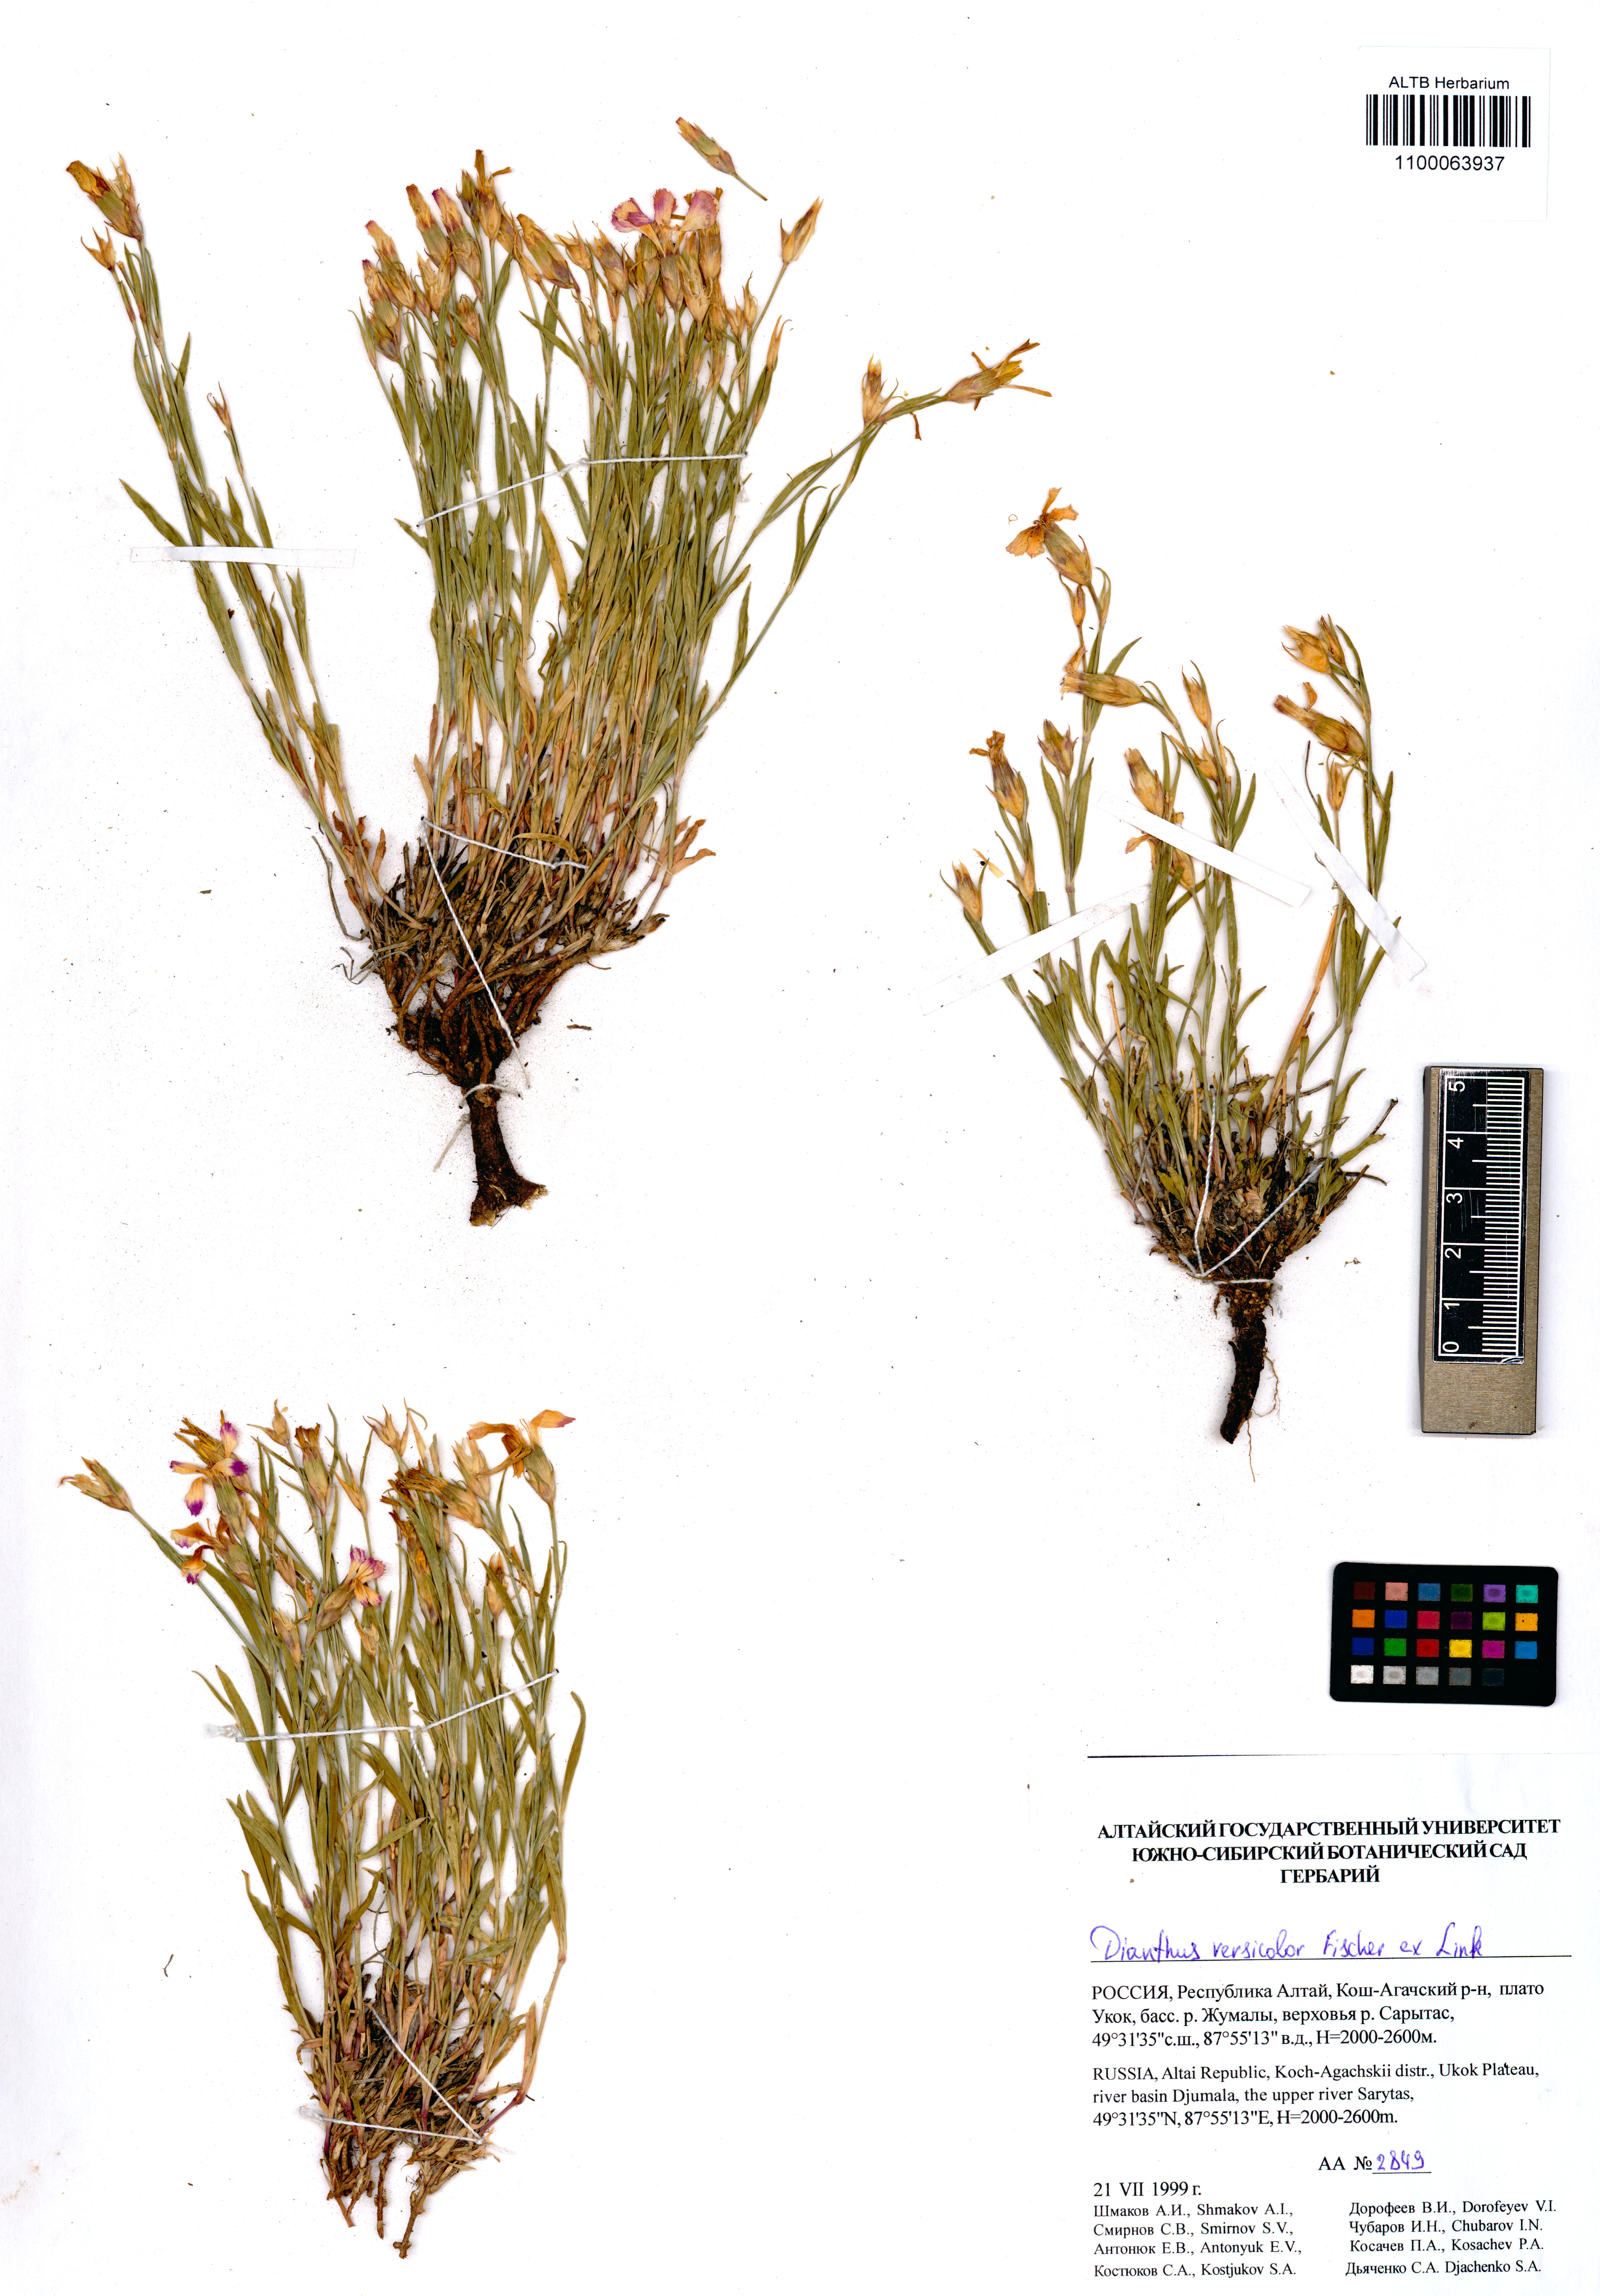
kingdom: Plantae
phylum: Tracheophyta
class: Magnoliopsida
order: Caryophyllales
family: Caryophyllaceae
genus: Dianthus
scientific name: Dianthus chinensis
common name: Rainbow pink
